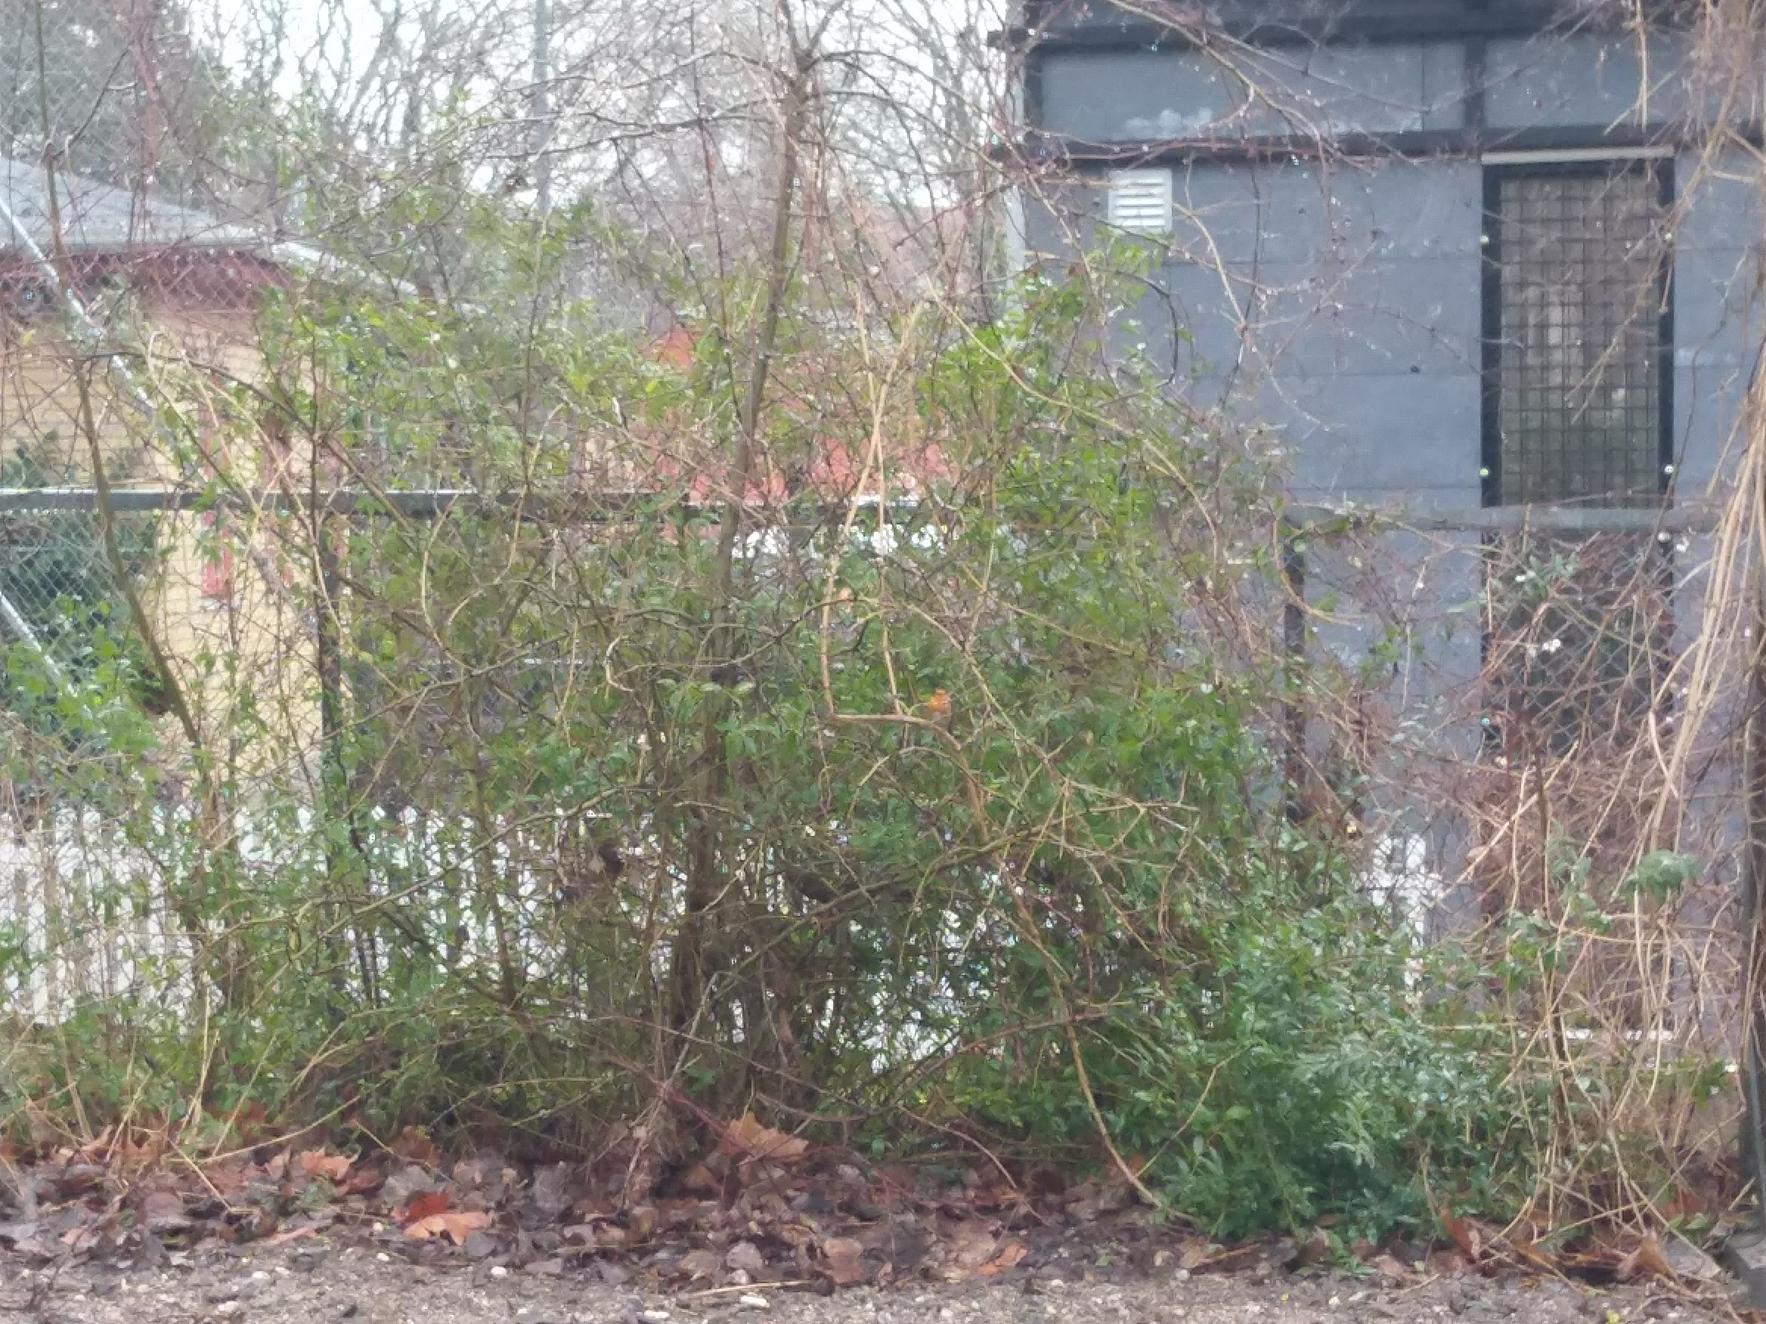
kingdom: Animalia
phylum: Chordata
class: Aves
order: Passeriformes
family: Muscicapidae
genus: Erithacus
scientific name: Erithacus rubecula
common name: Rødhals/rødkælk
